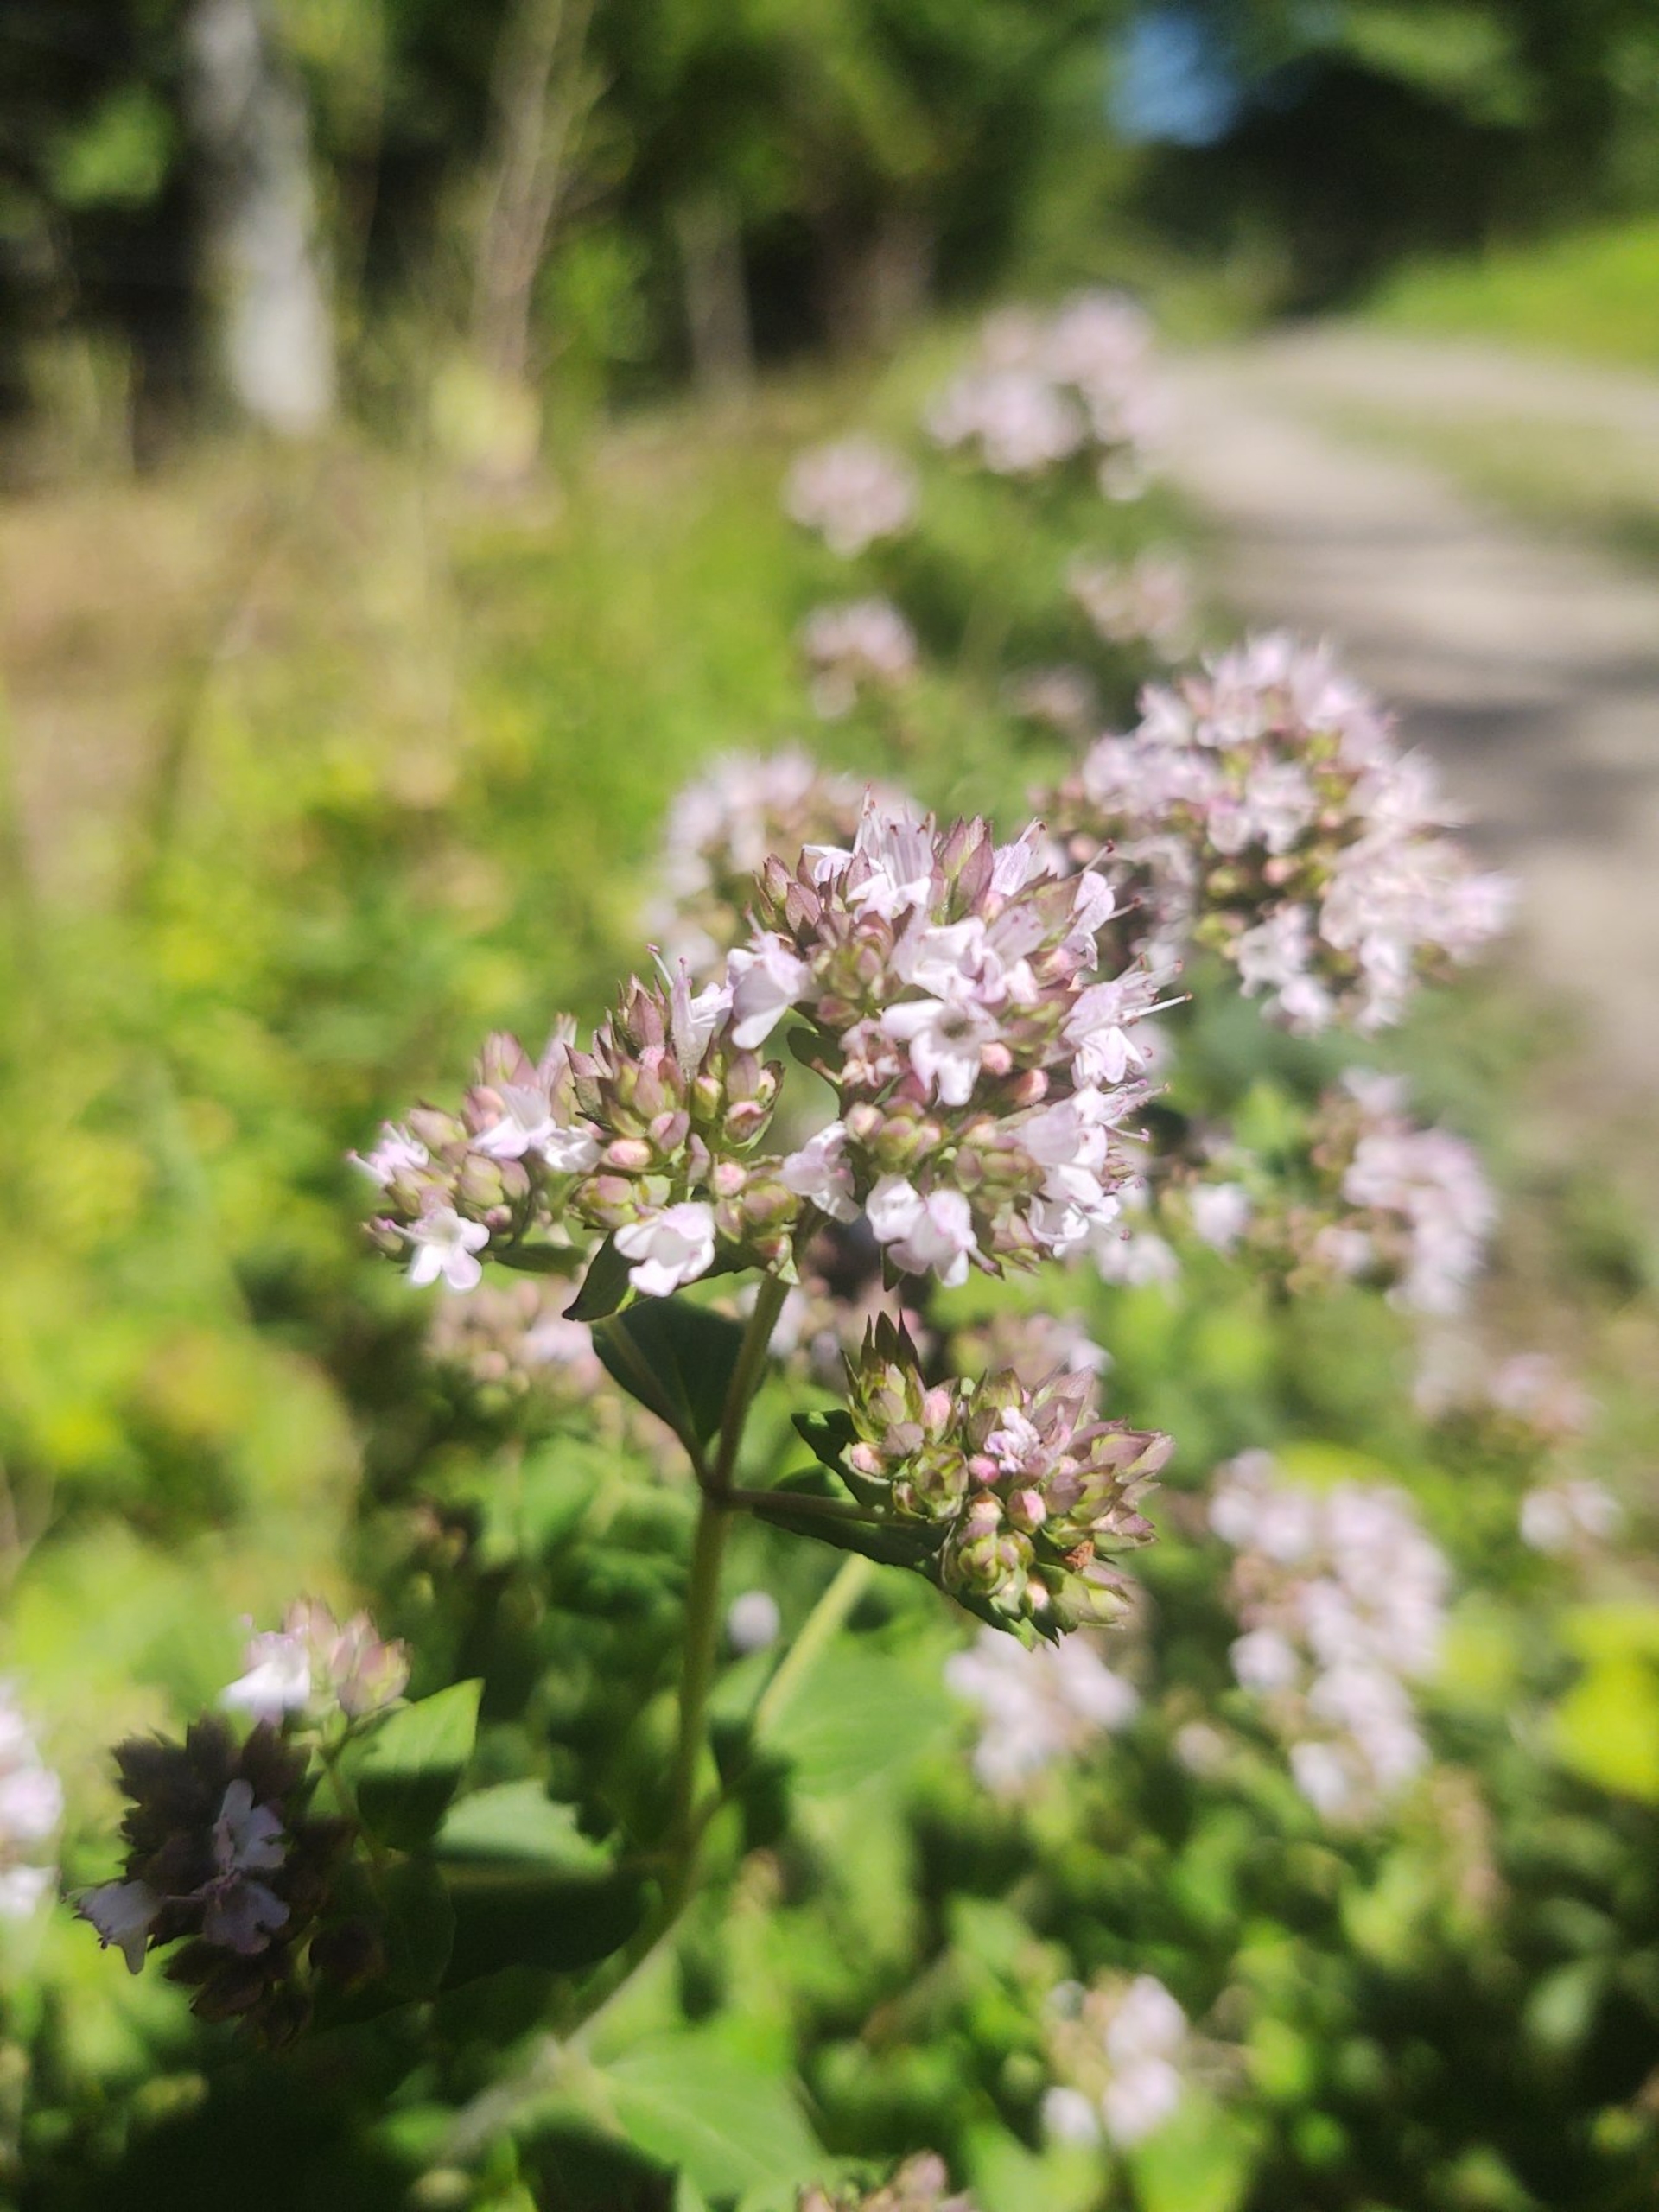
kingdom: Plantae
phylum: Tracheophyta
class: Magnoliopsida
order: Lamiales
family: Lamiaceae
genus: Origanum
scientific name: Origanum vulgare
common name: Merian
